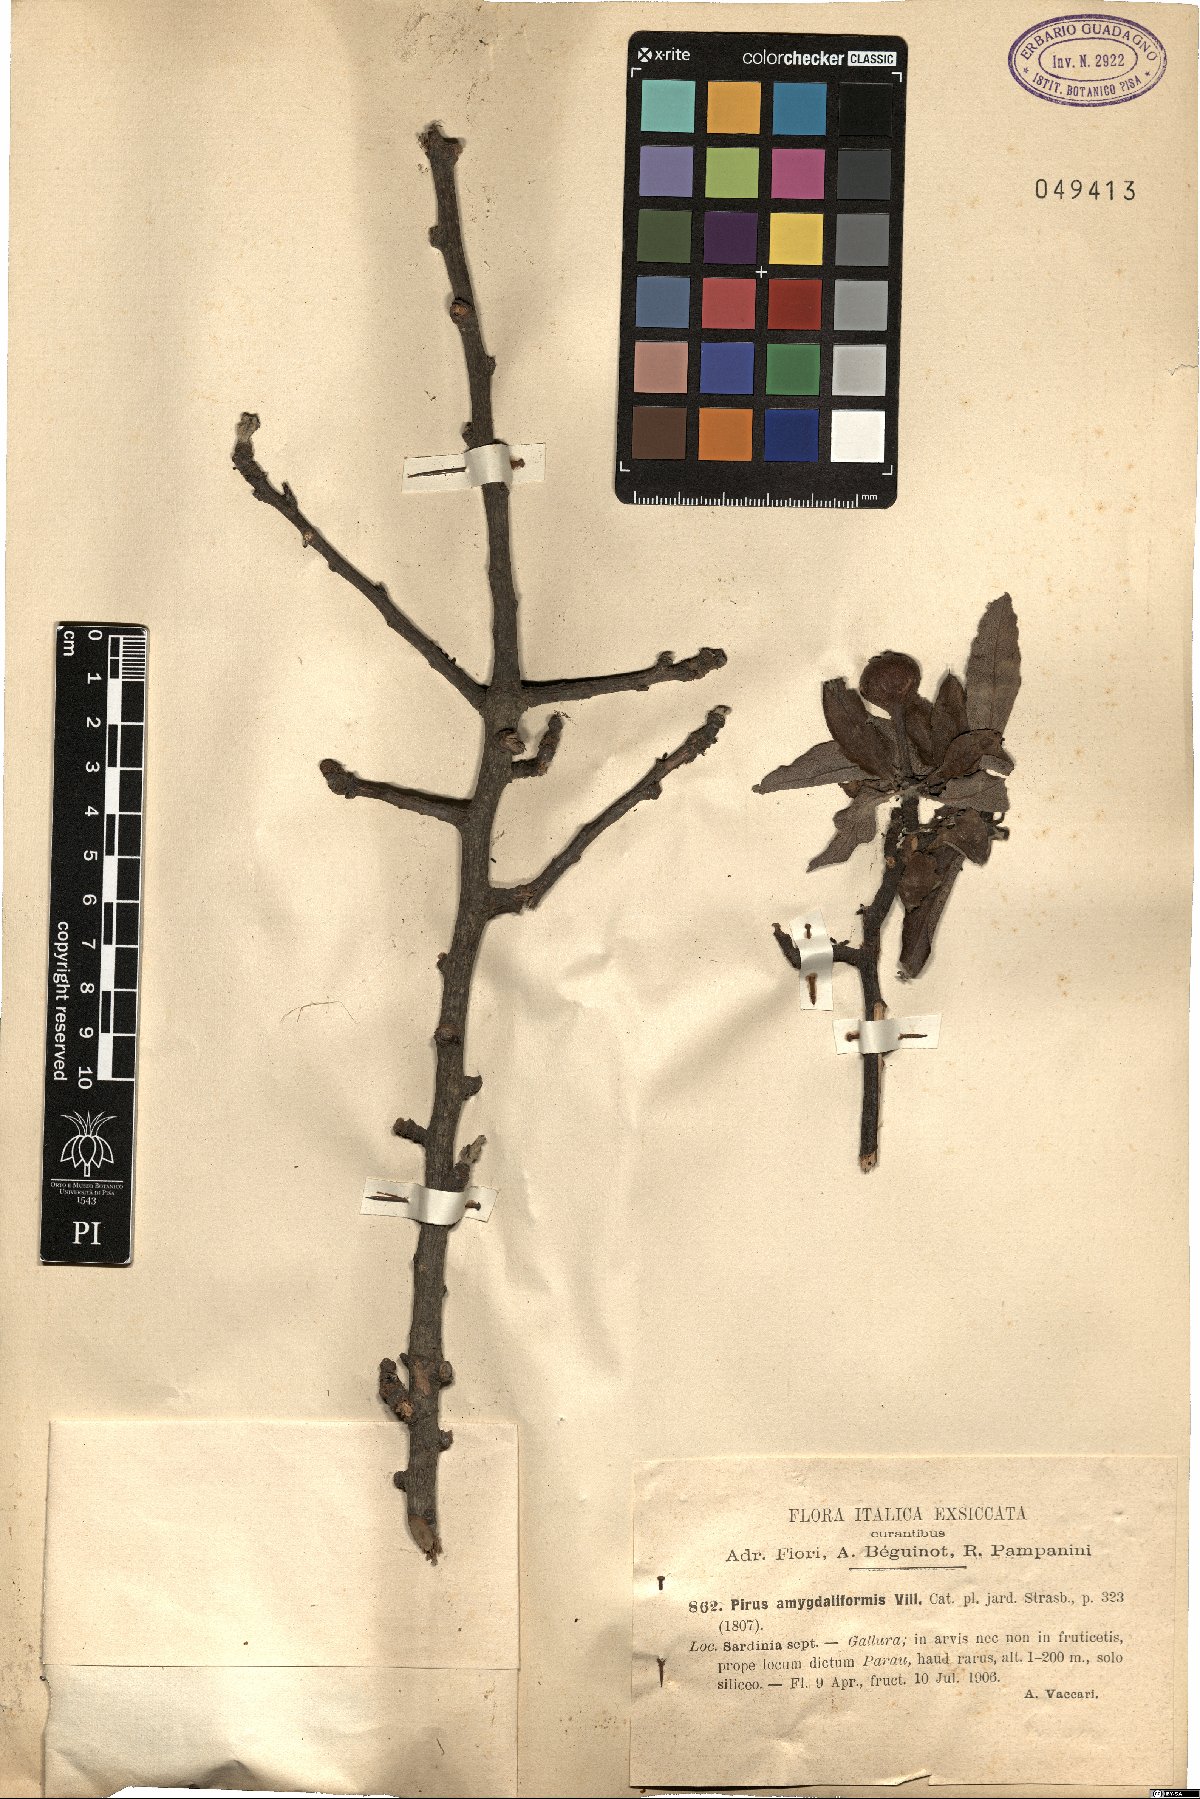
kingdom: Plantae
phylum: Tracheophyta
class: Magnoliopsida
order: Rosales
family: Rosaceae
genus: Pyrus
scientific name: Pyrus spinosa
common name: Almond-leaf pear
